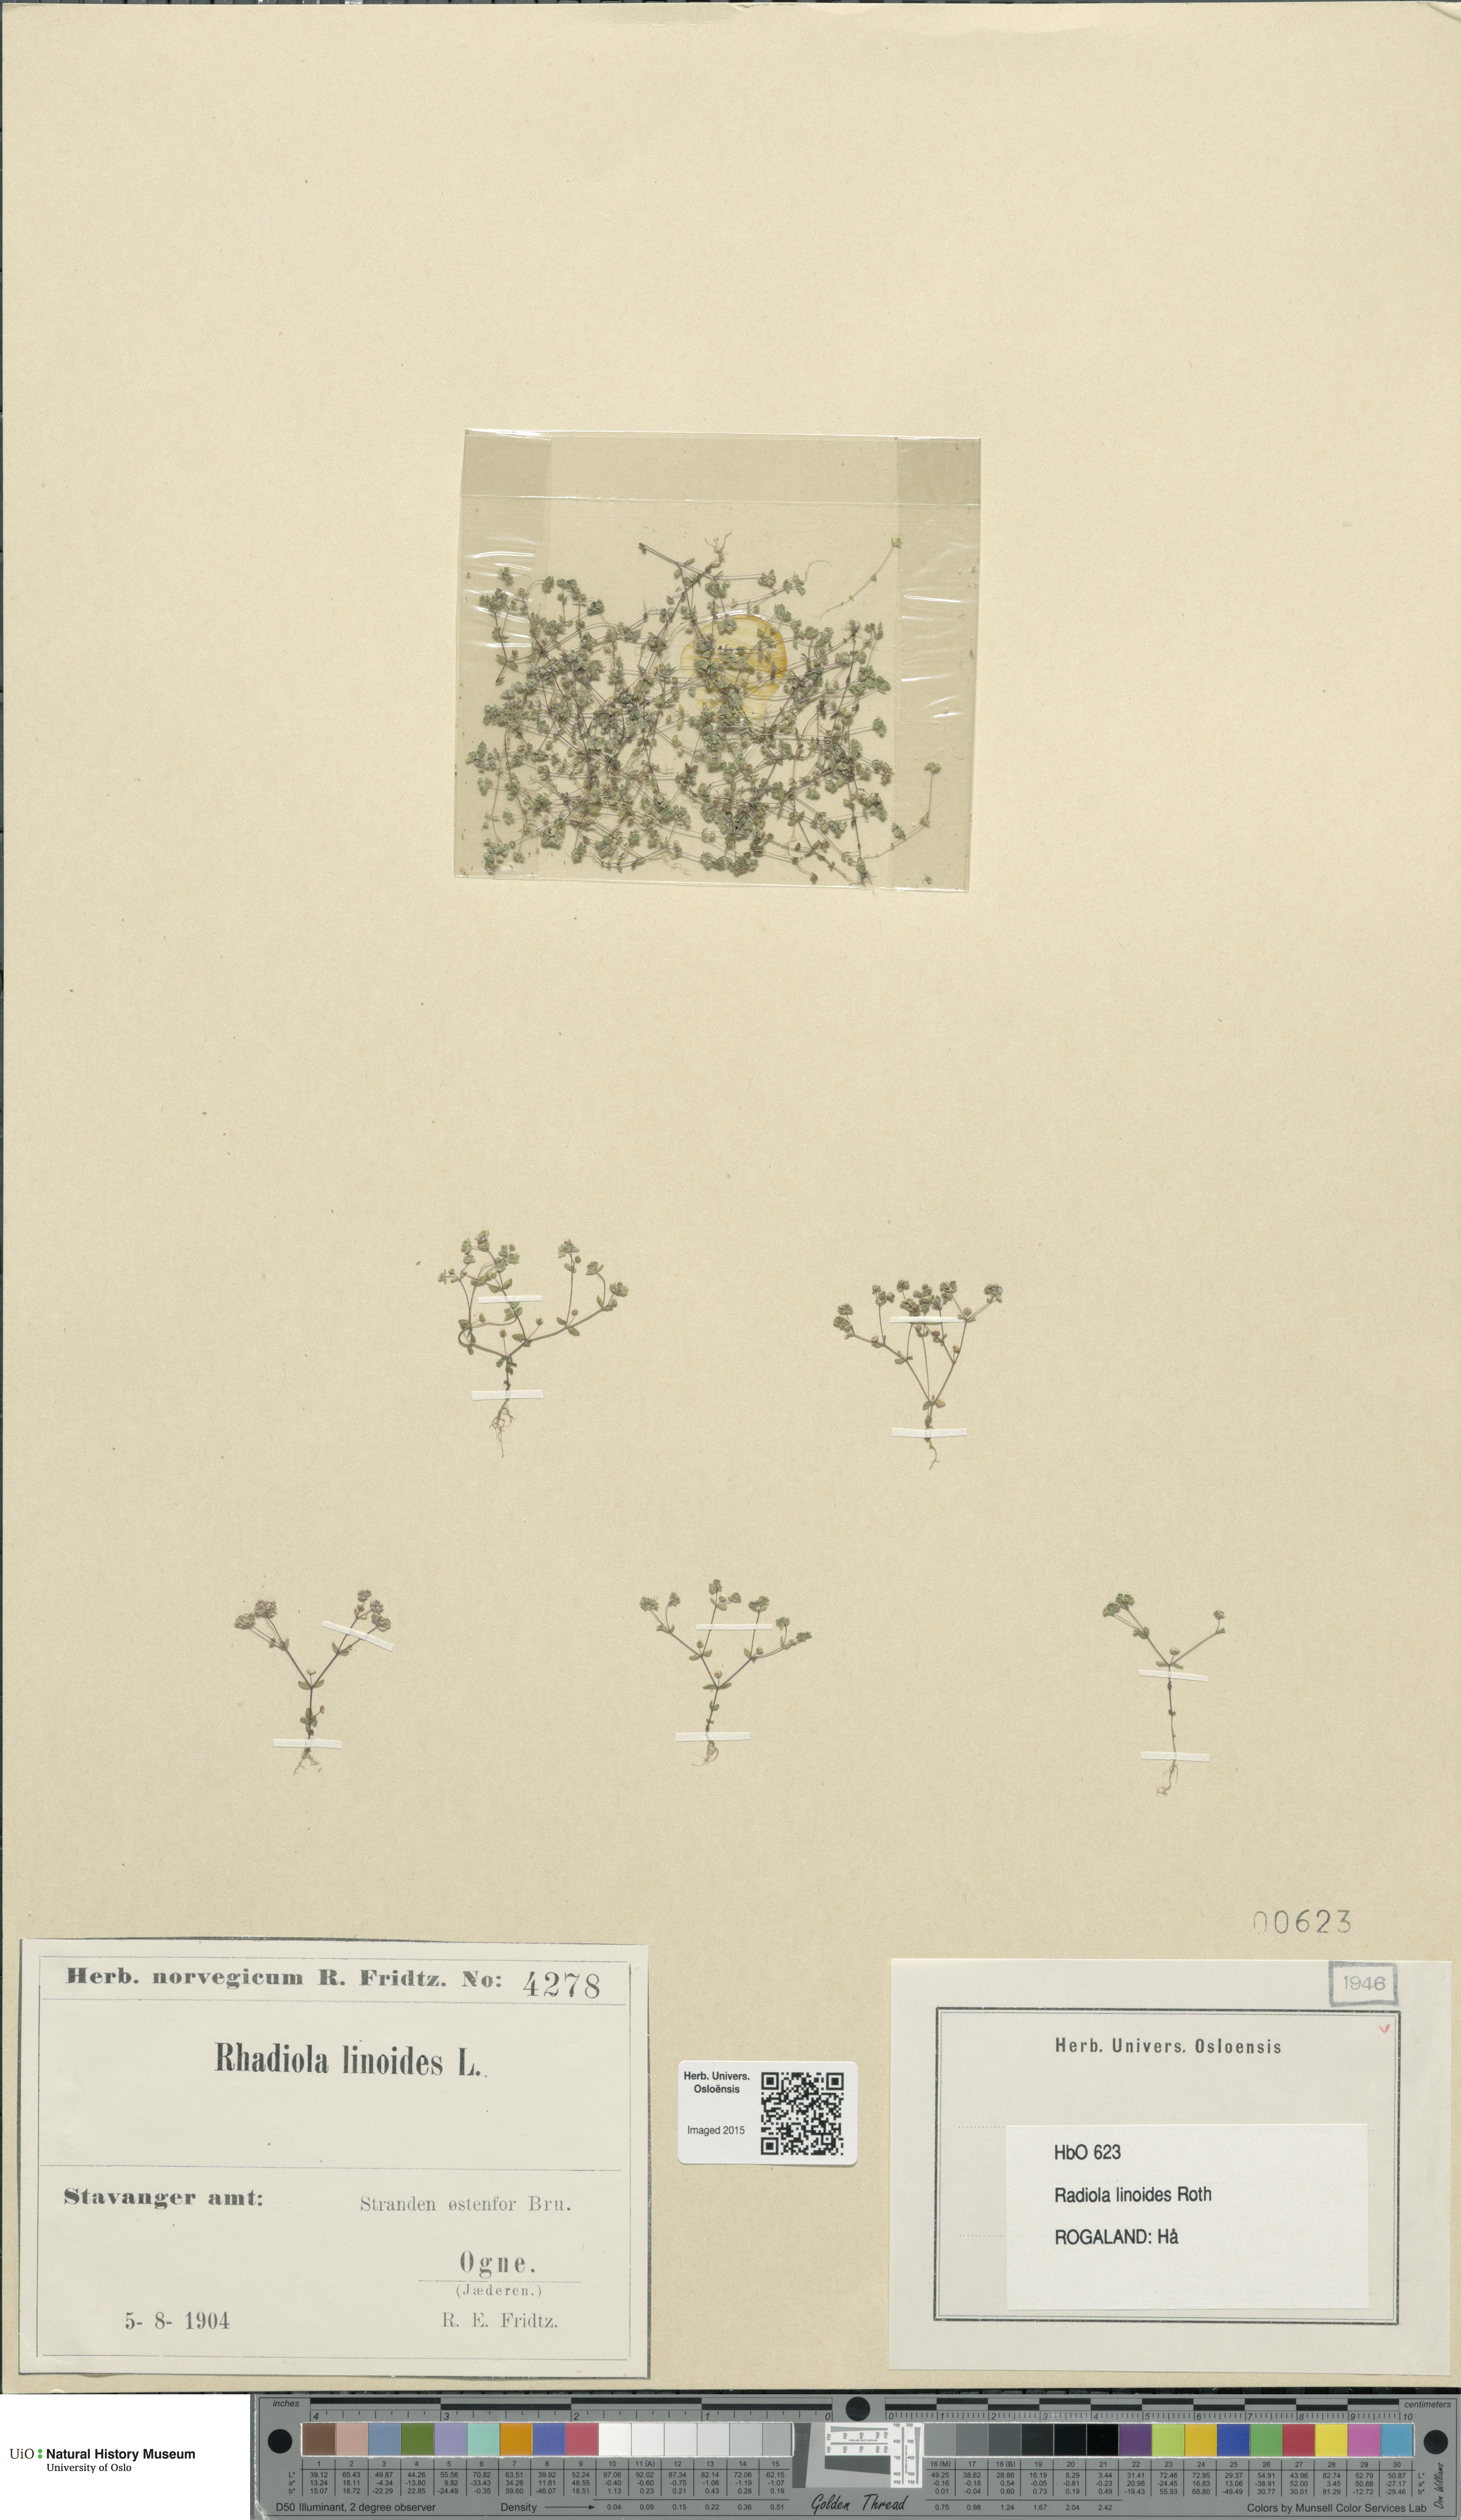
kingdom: Plantae
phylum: Tracheophyta
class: Magnoliopsida
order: Malpighiales
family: Linaceae
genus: Radiola
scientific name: Radiola linoides
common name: Allseed
